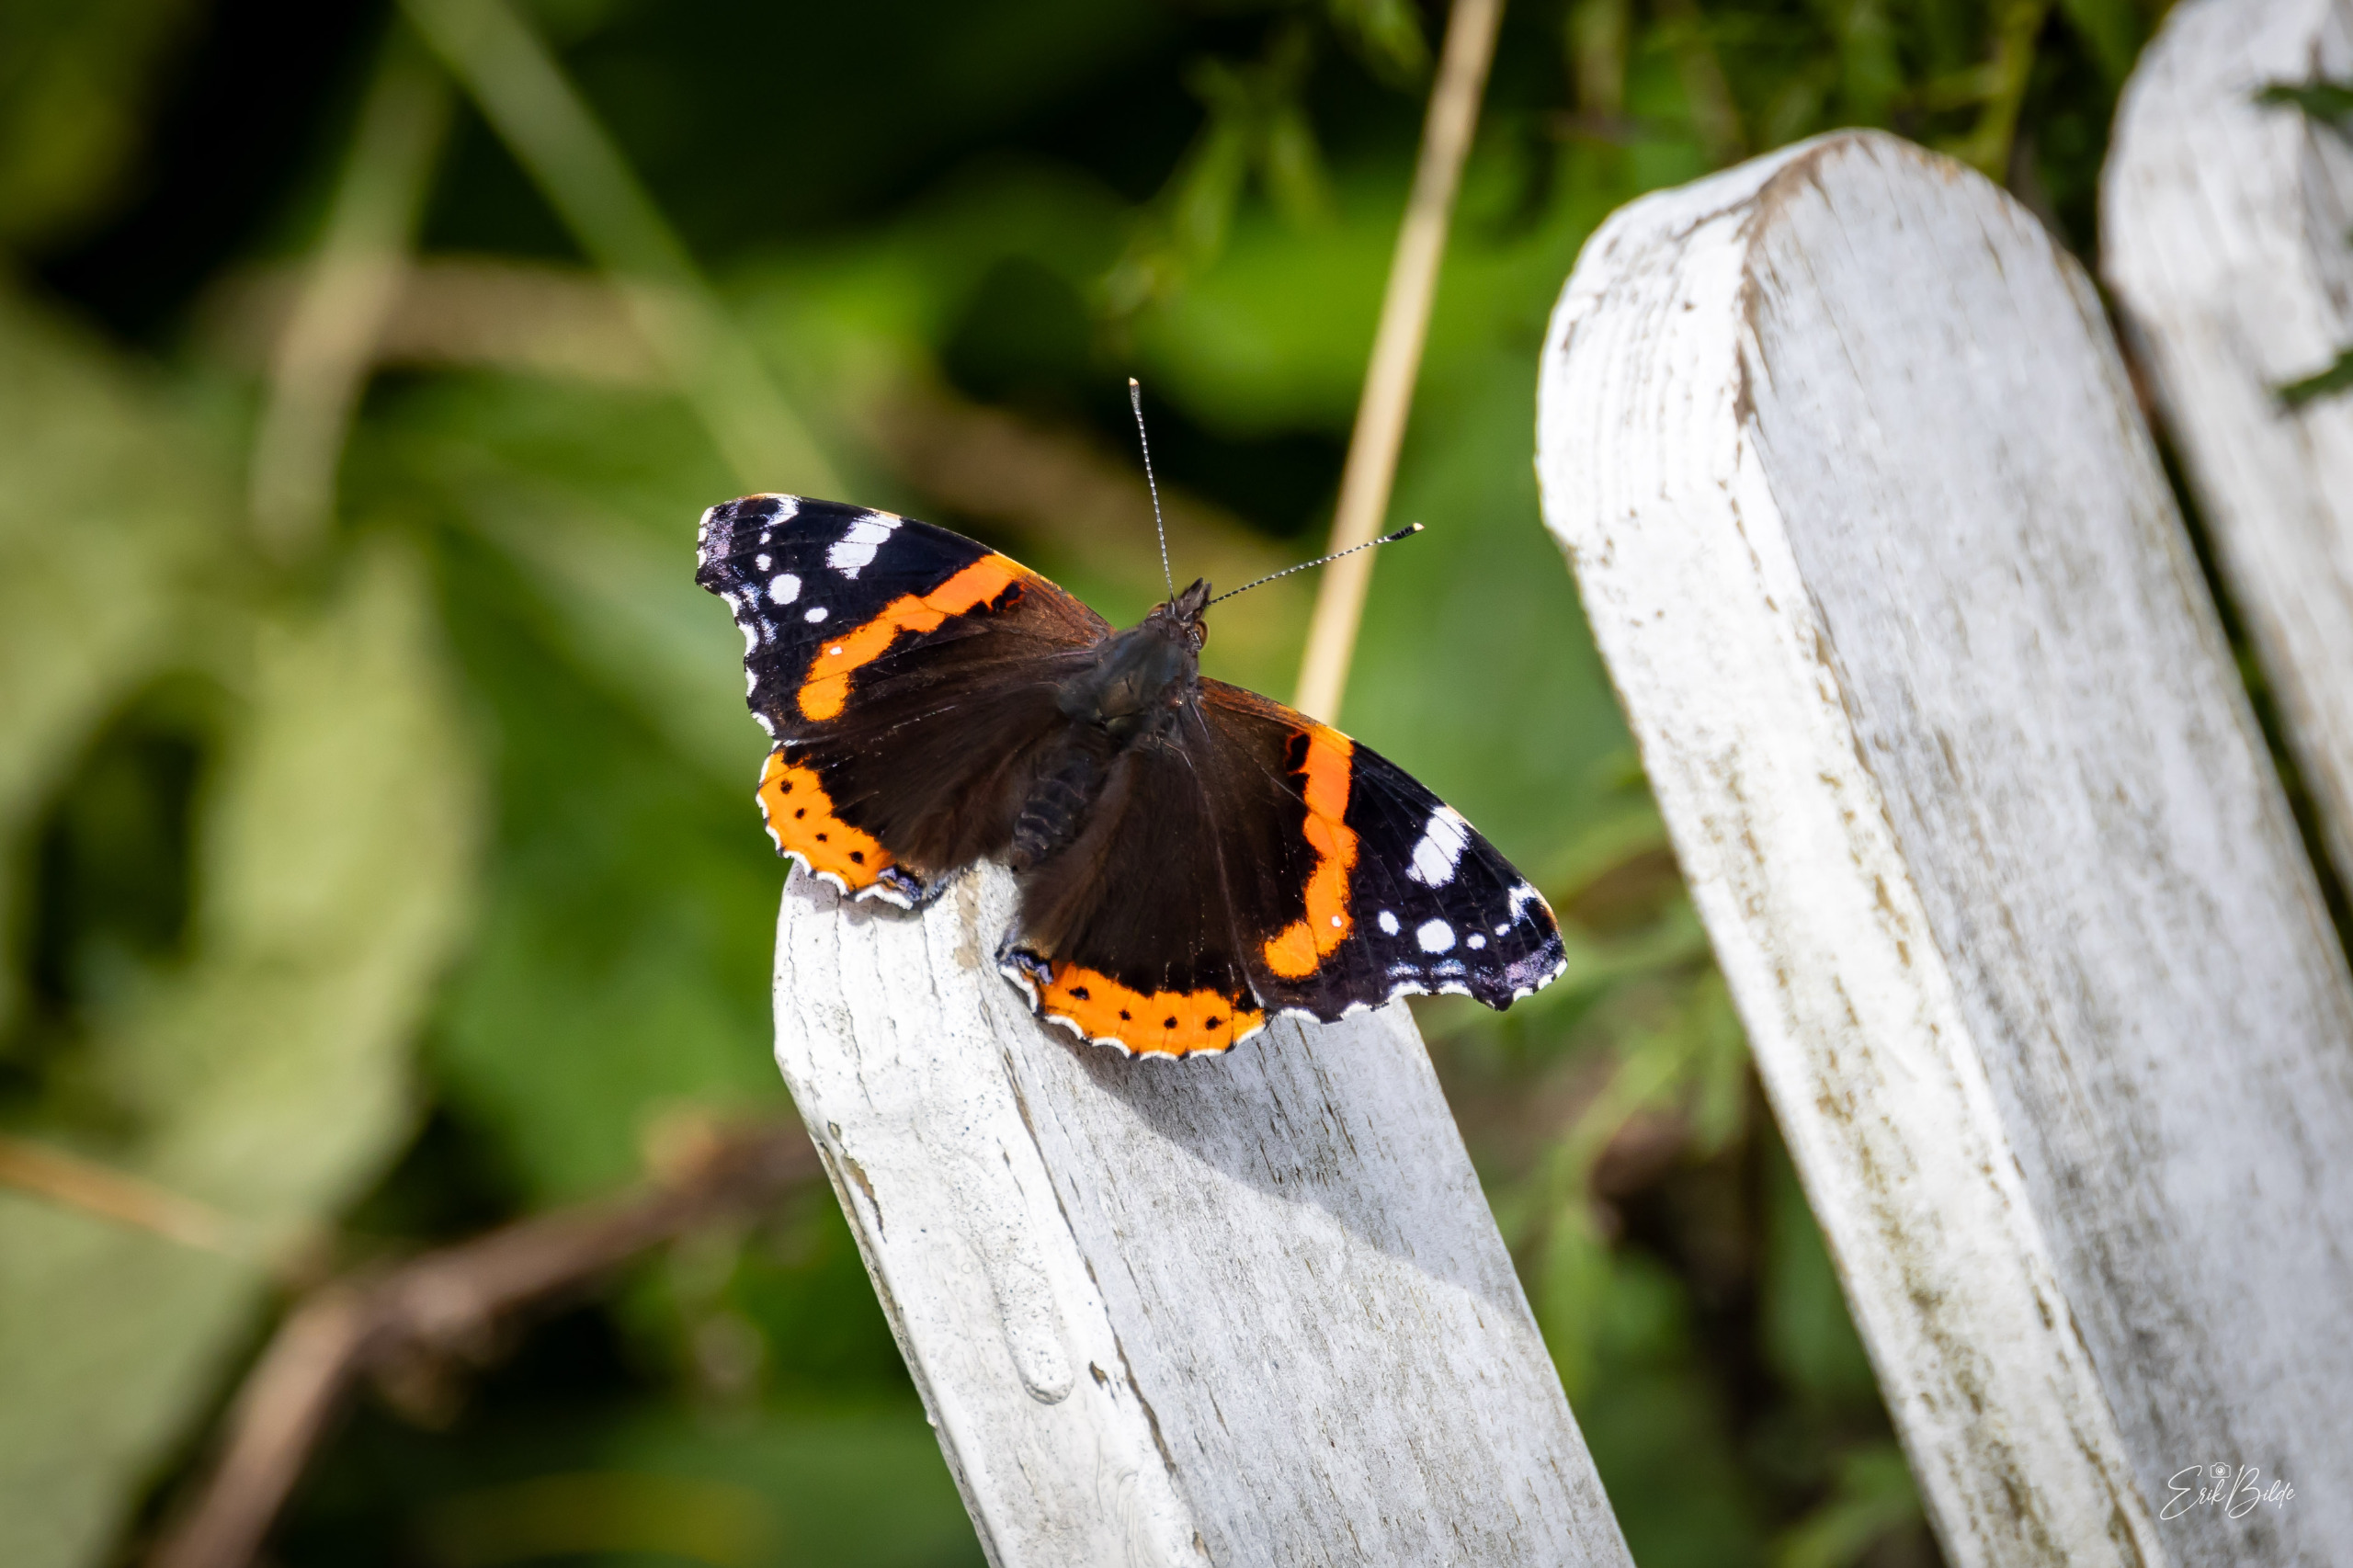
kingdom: Animalia
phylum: Arthropoda
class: Insecta
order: Lepidoptera
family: Nymphalidae
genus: Vanessa
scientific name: Vanessa atalanta
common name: Admiral
